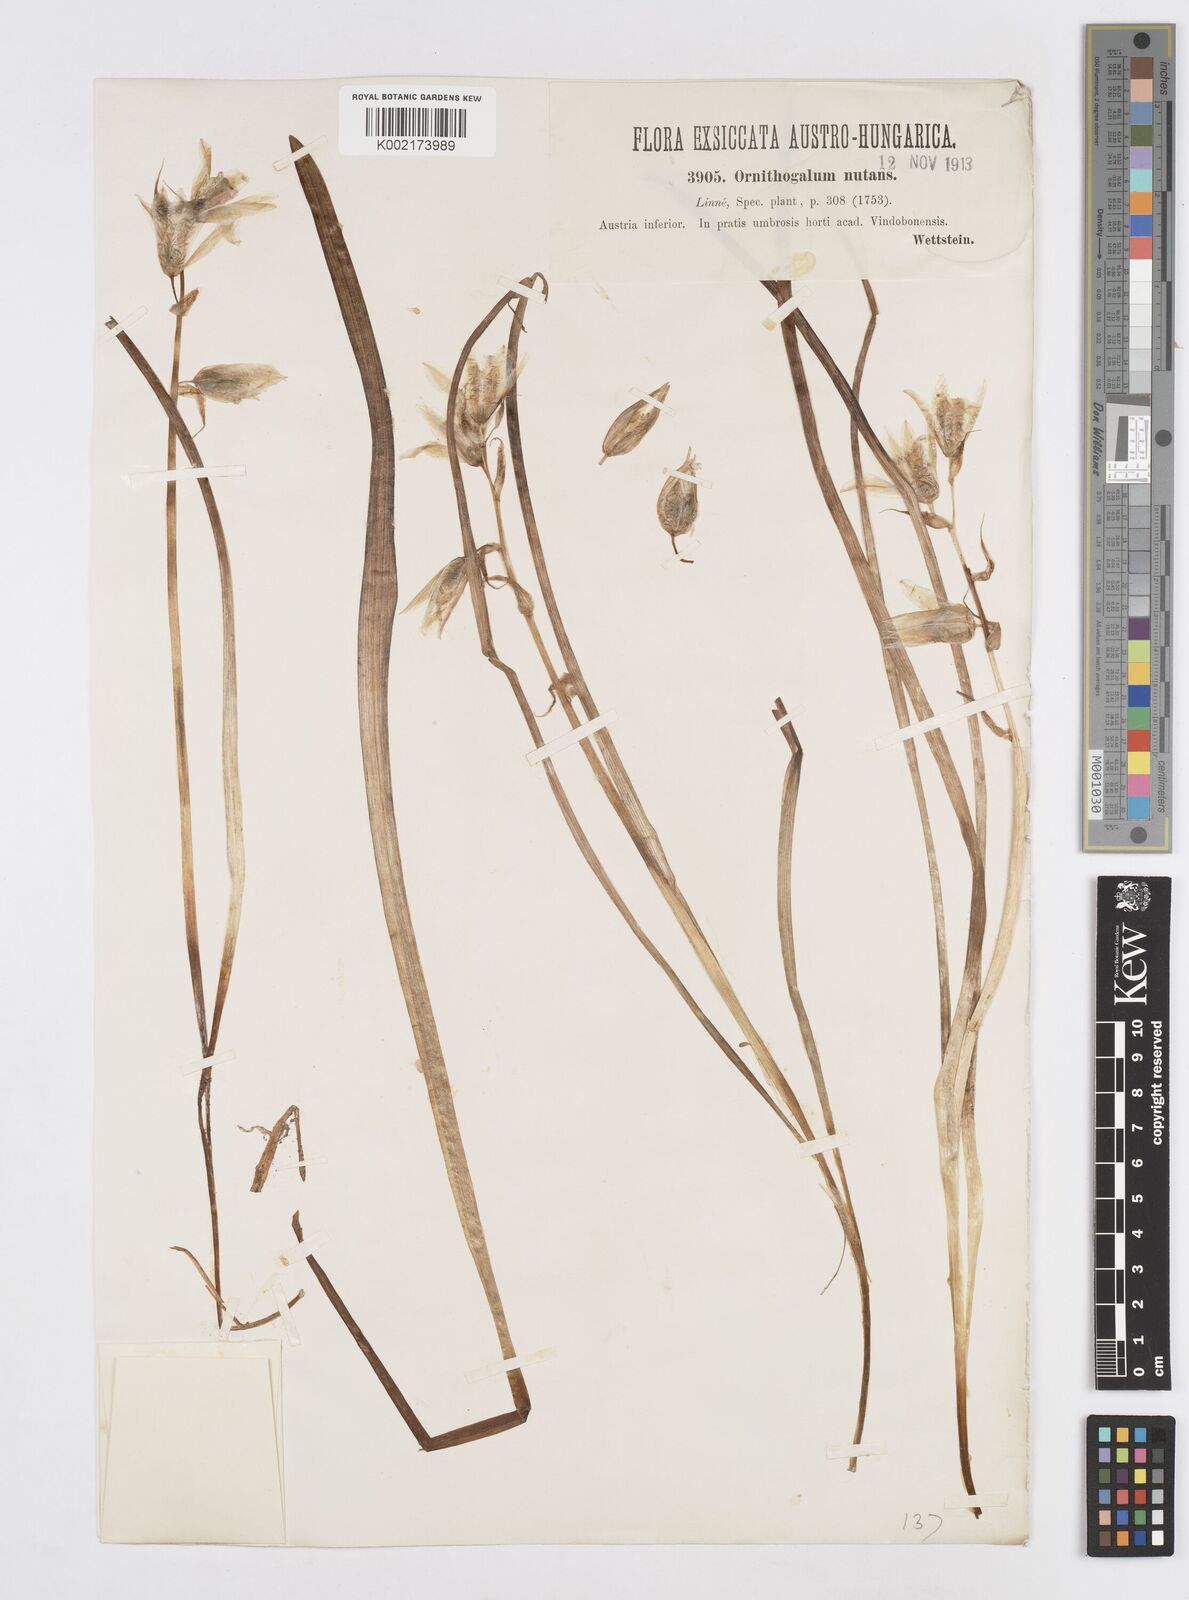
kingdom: Plantae
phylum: Tracheophyta
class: Liliopsida
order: Asparagales
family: Asparagaceae
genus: Ornithogalum
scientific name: Ornithogalum nutans
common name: Drooping star-of-bethlehem
